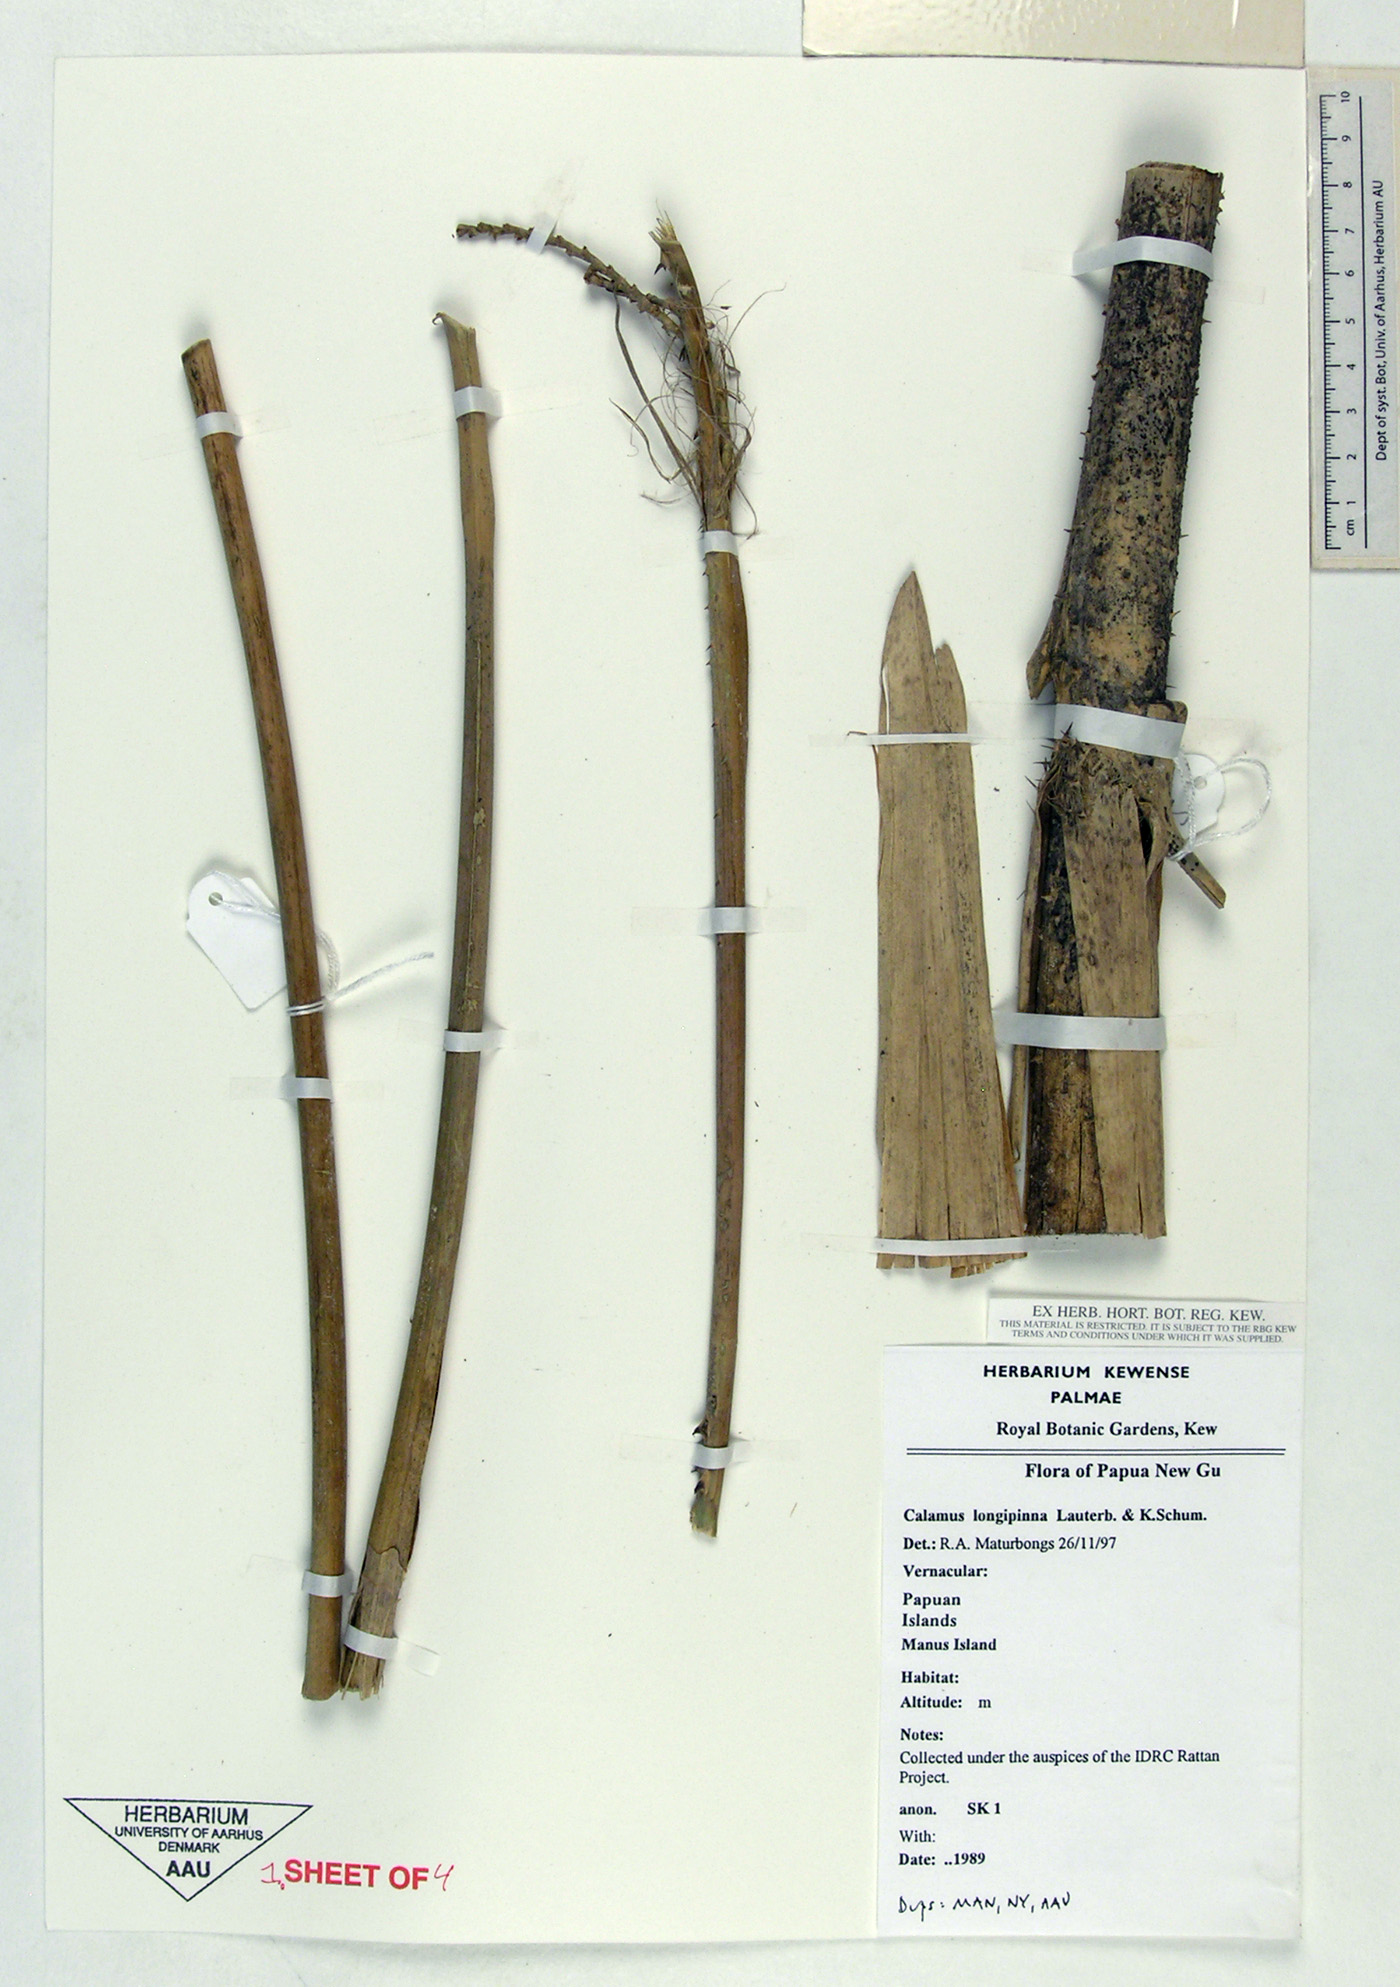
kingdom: Plantae
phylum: Tracheophyta
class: Liliopsida
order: Arecales
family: Arecaceae
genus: Calamus
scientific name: Calamus longipinna
